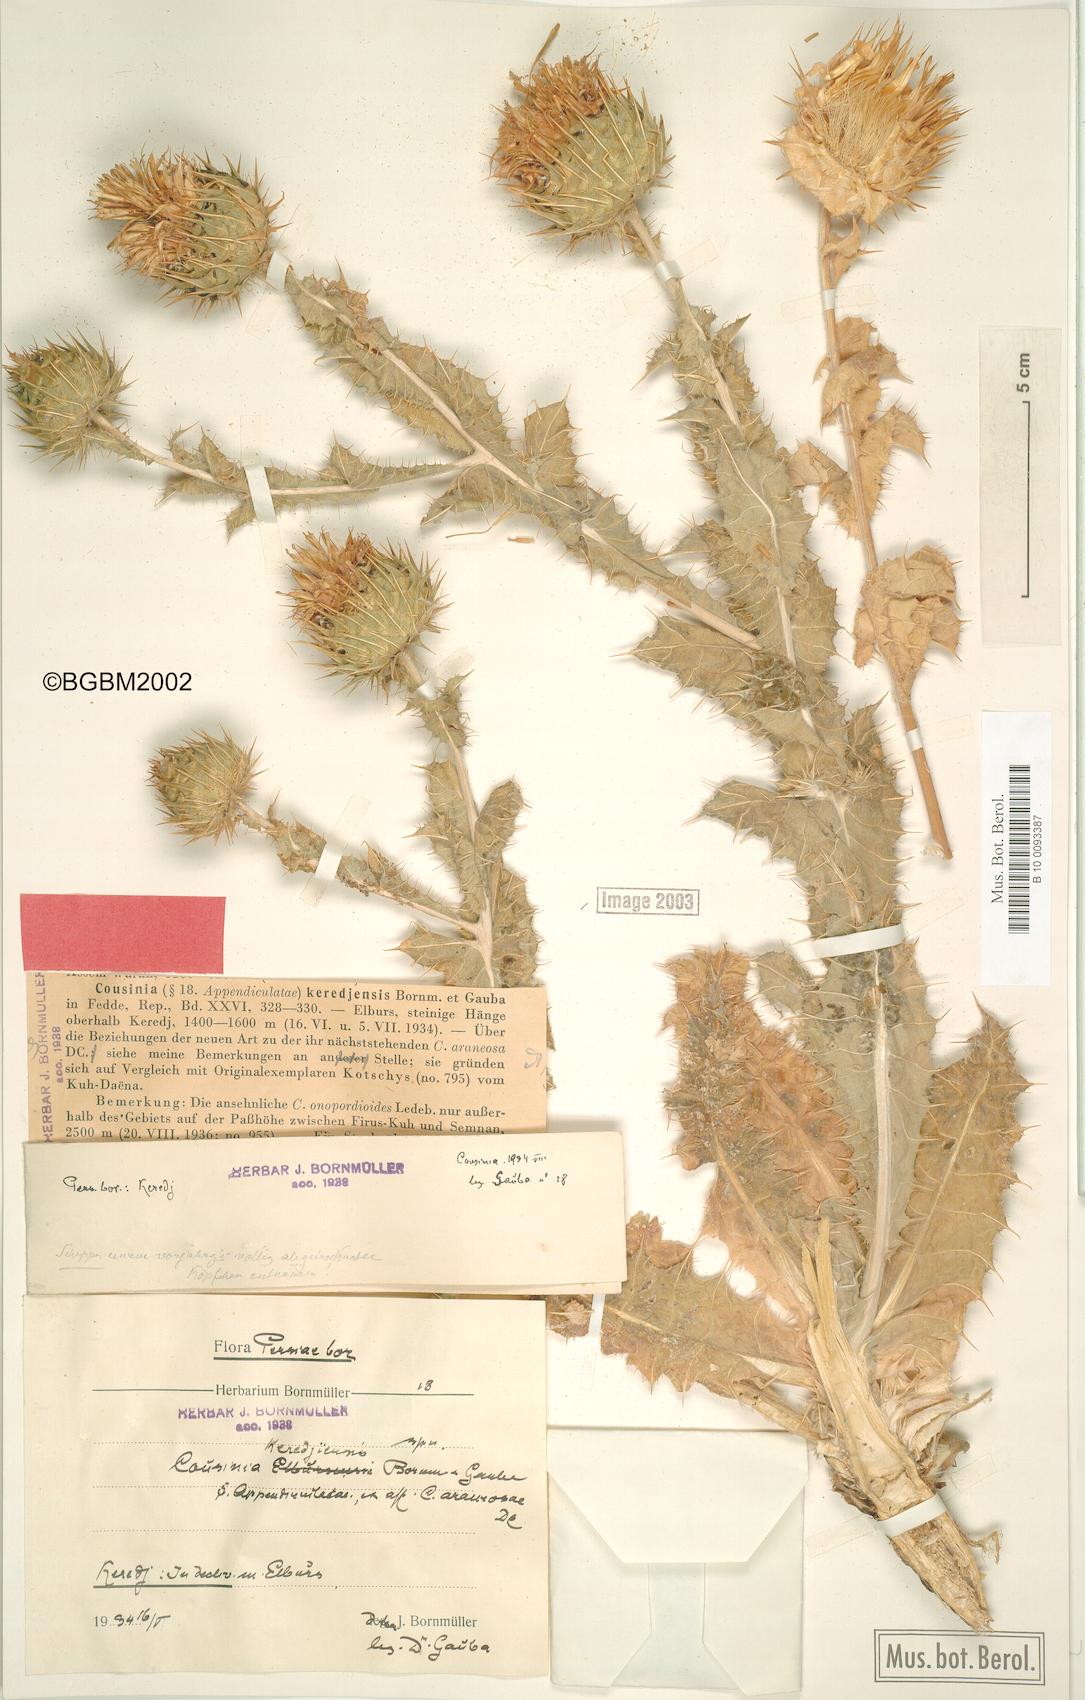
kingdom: Plantae
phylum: Tracheophyta
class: Magnoliopsida
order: Asterales
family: Asteraceae
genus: Cousinia
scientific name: Cousinia keredjensis
